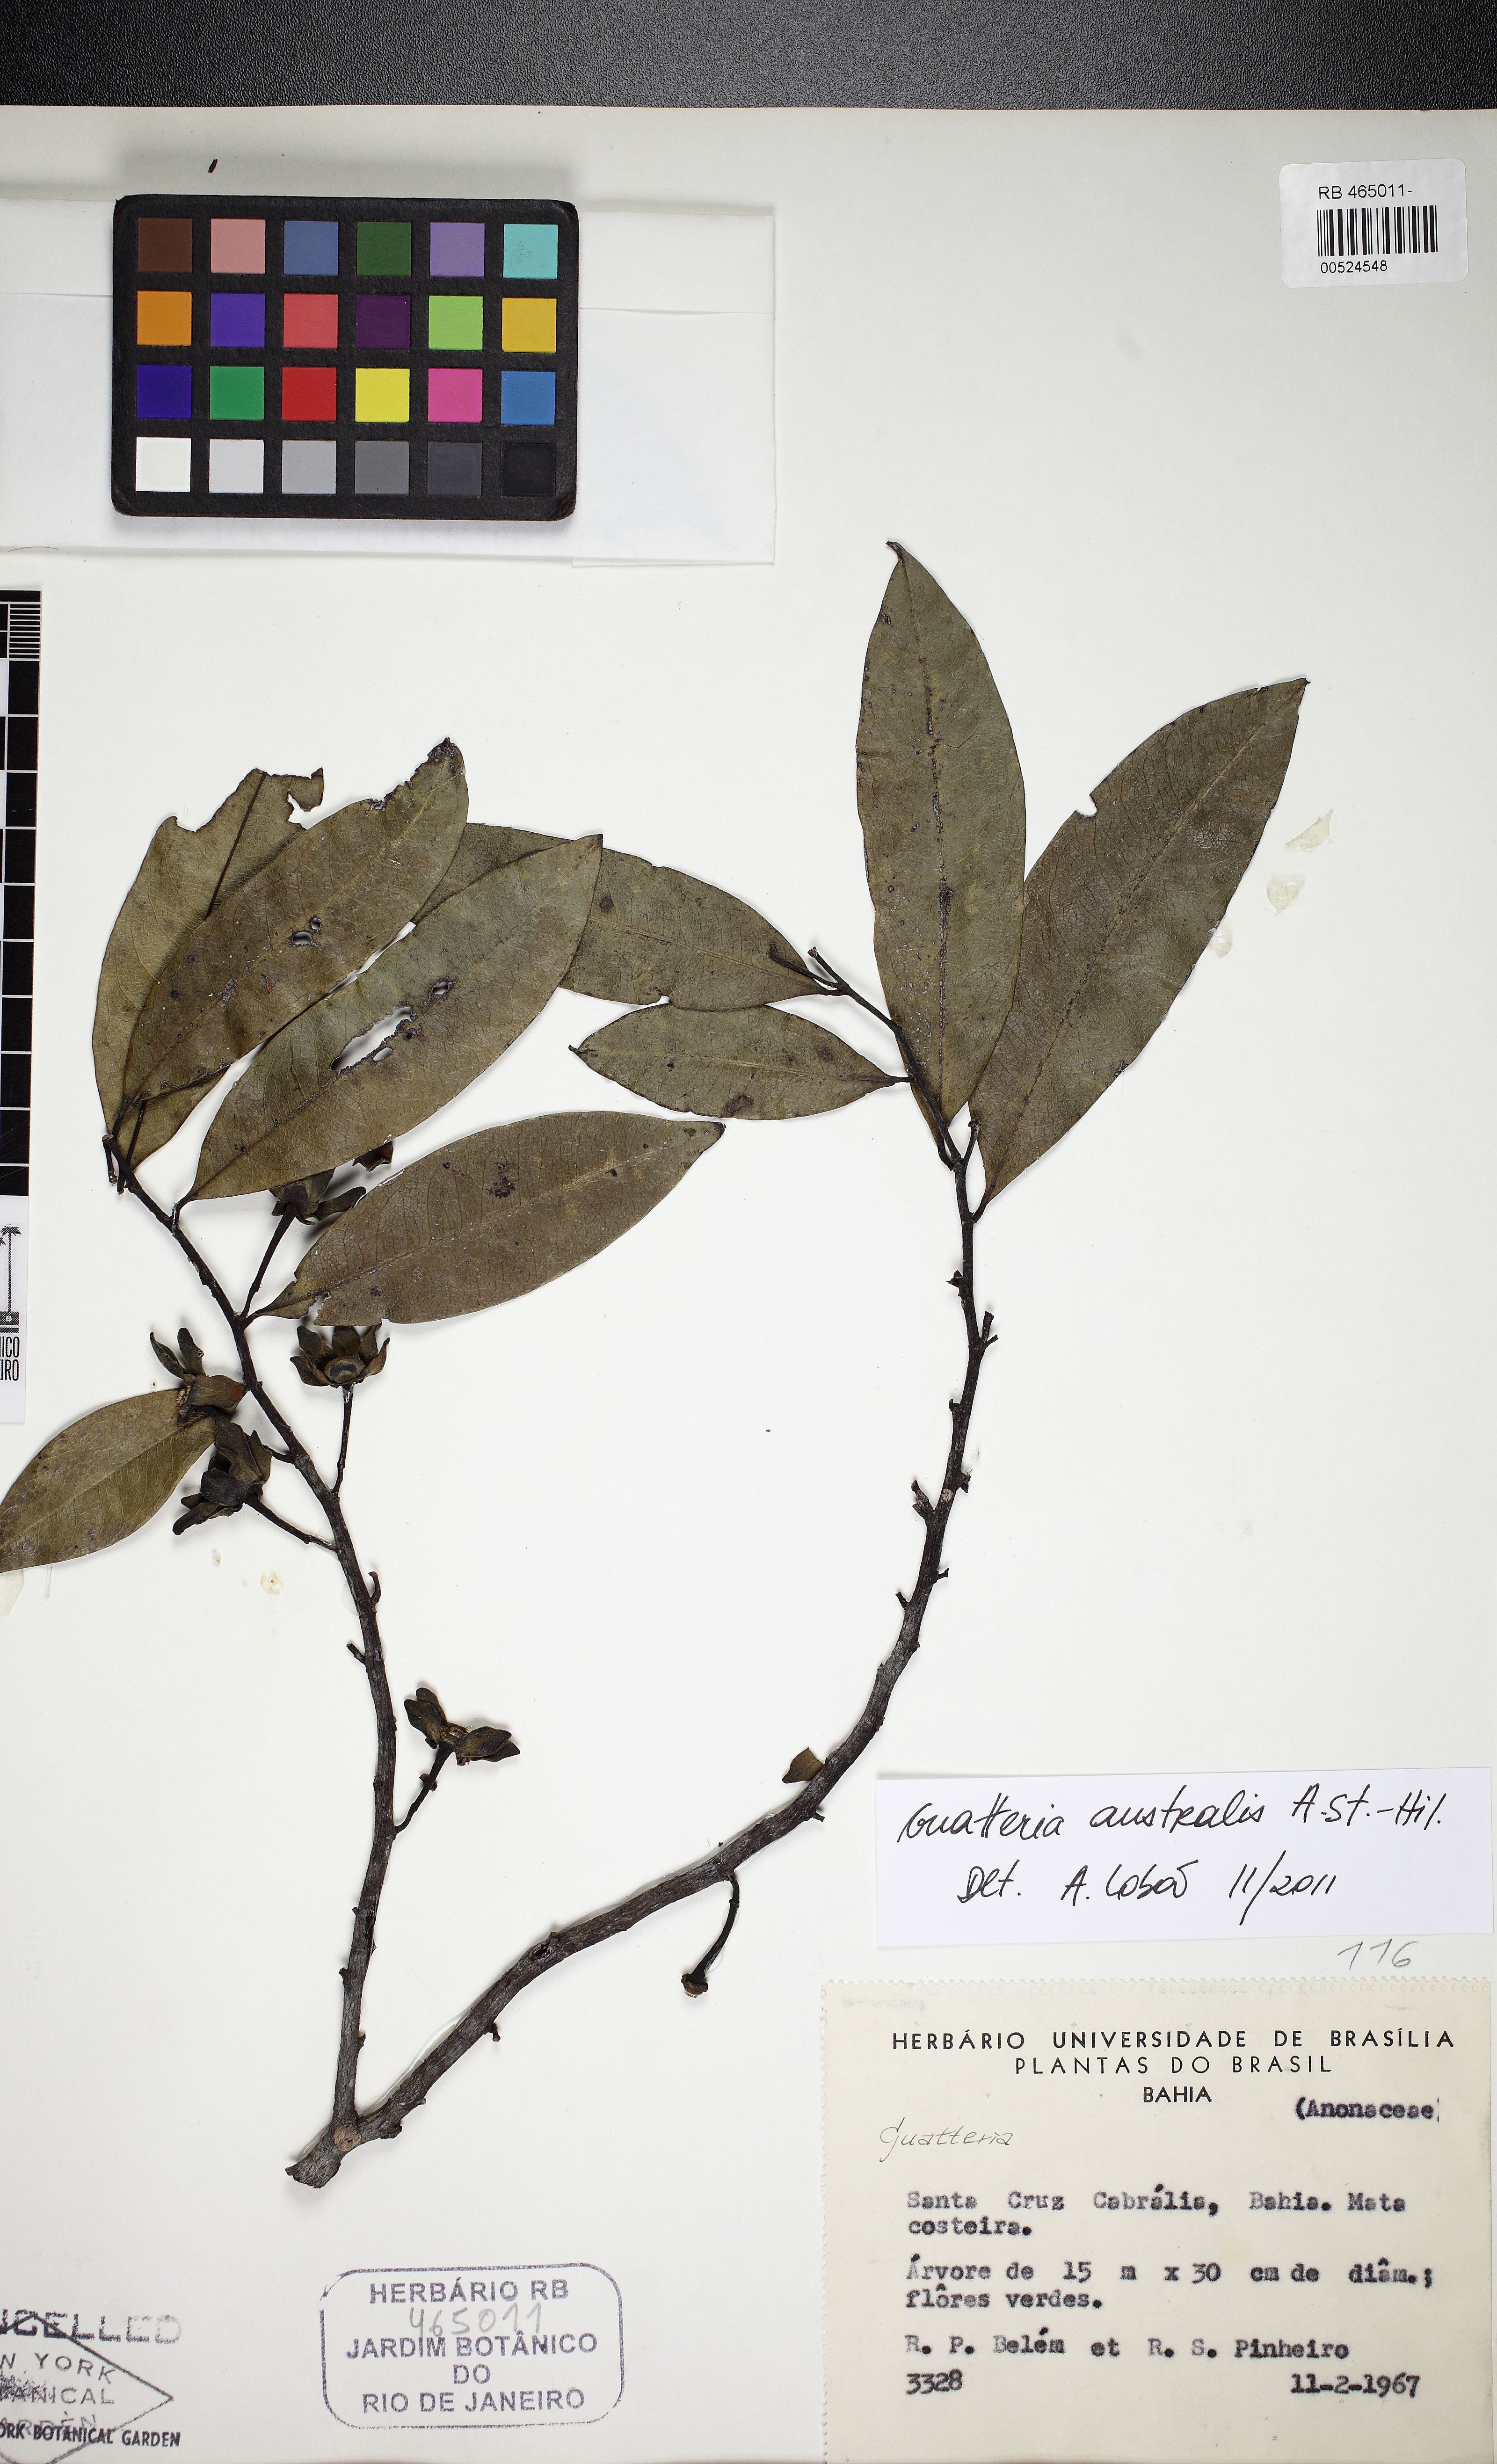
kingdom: Plantae
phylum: Tracheophyta
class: Magnoliopsida
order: Magnoliales
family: Annonaceae
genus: Guatteria
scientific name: Guatteria australis
